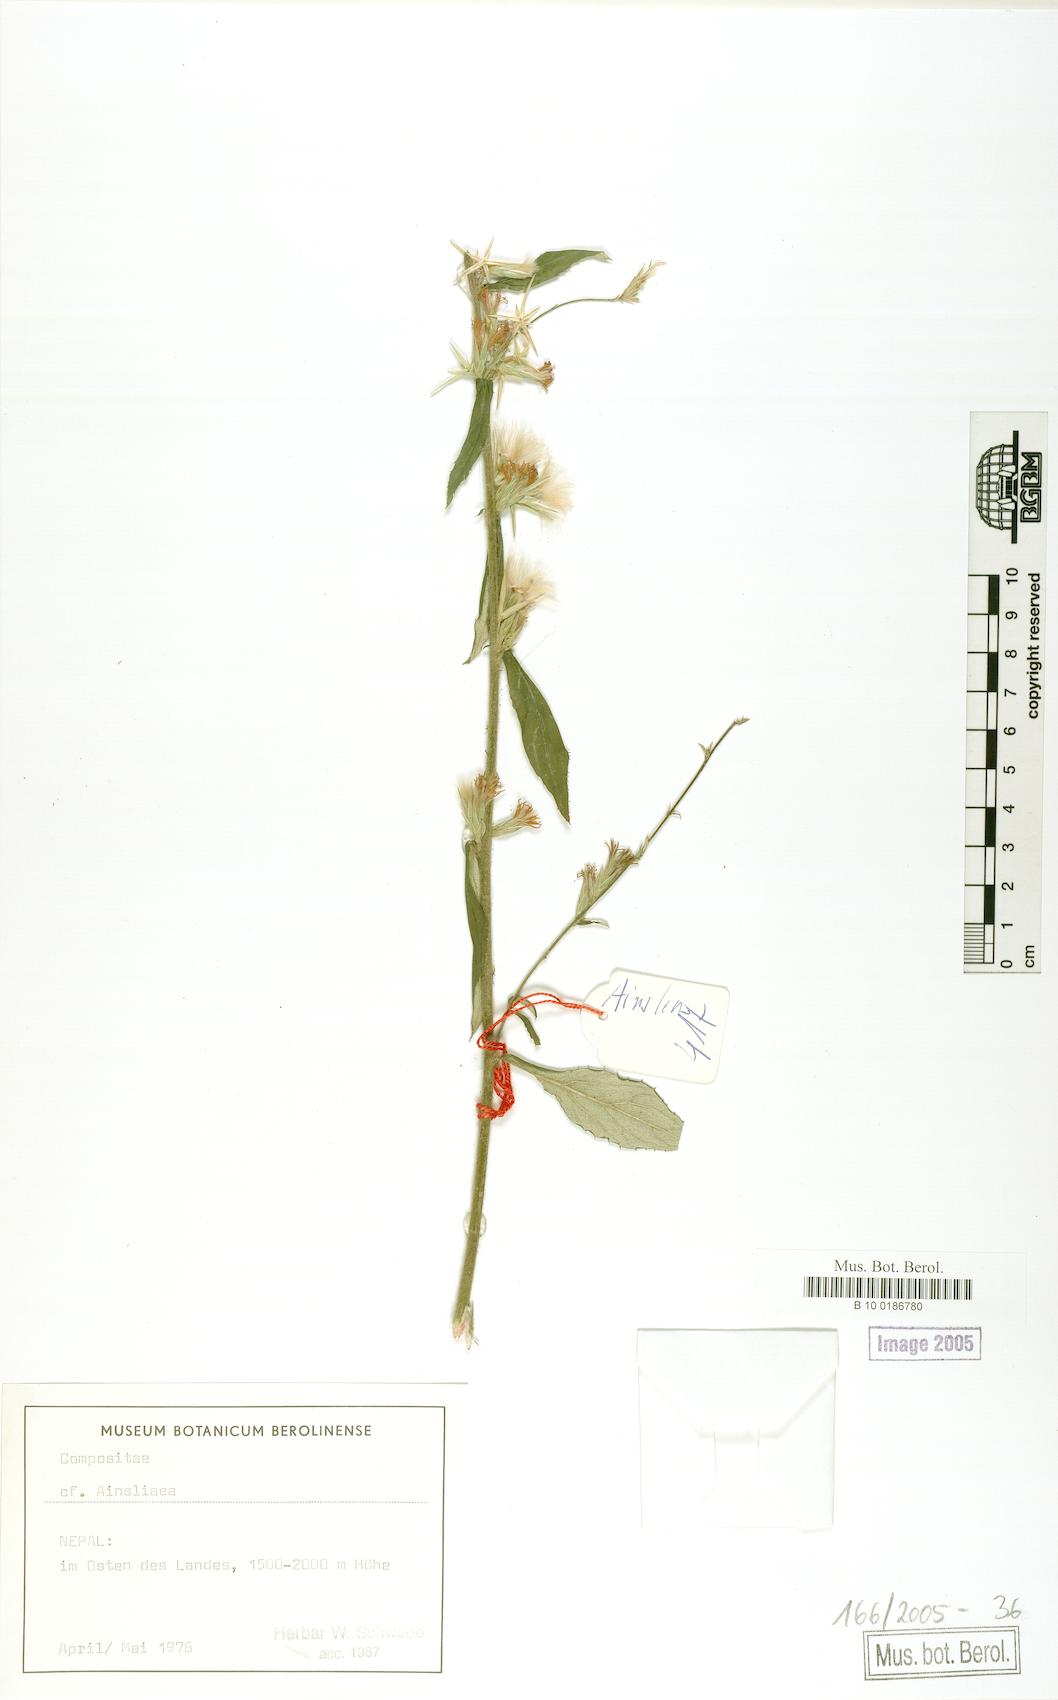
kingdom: Plantae
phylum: Tracheophyta
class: Magnoliopsida
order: Asterales
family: Asteraceae
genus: Ainsliaea
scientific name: Ainsliaea
